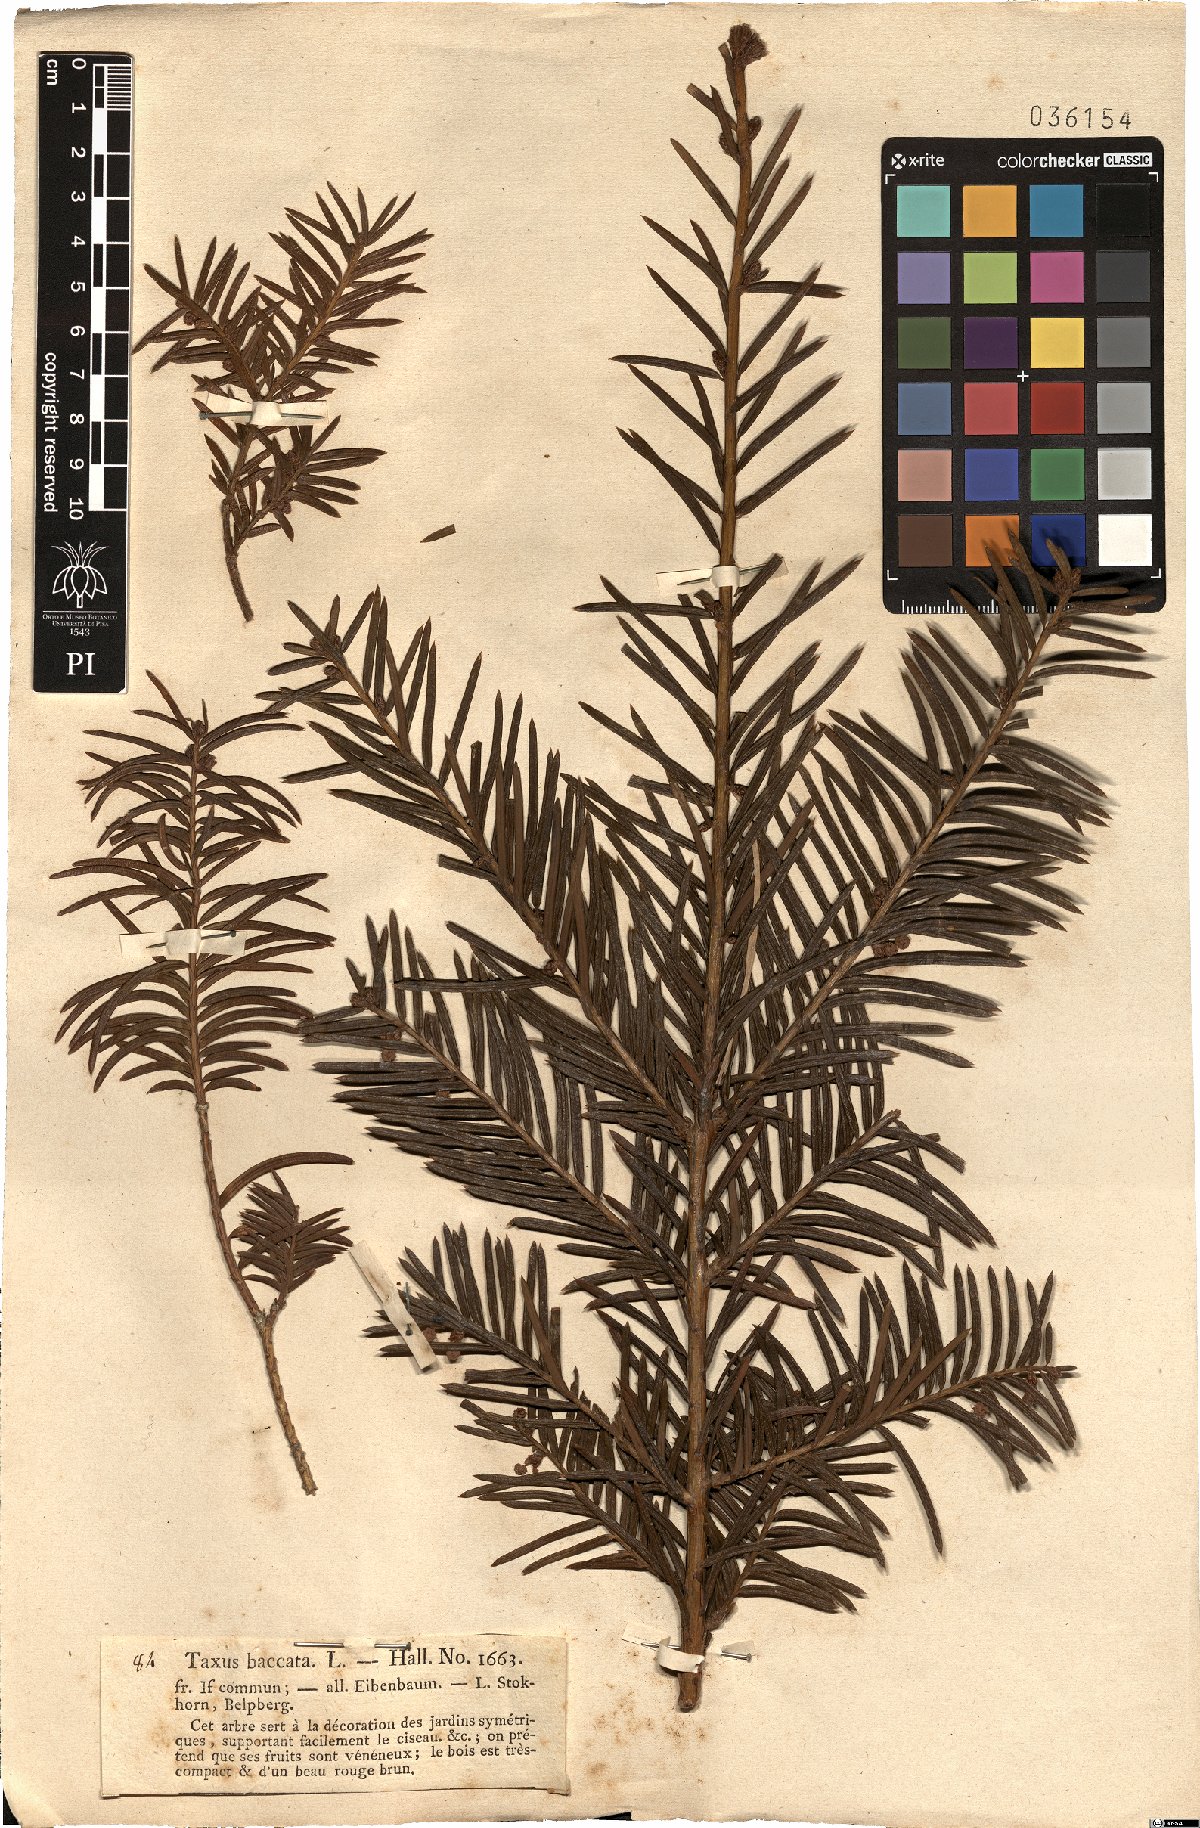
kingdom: Plantae
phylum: Tracheophyta
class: Pinopsida
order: Pinales
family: Taxaceae
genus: Taxus
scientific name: Taxus baccata
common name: Yew
